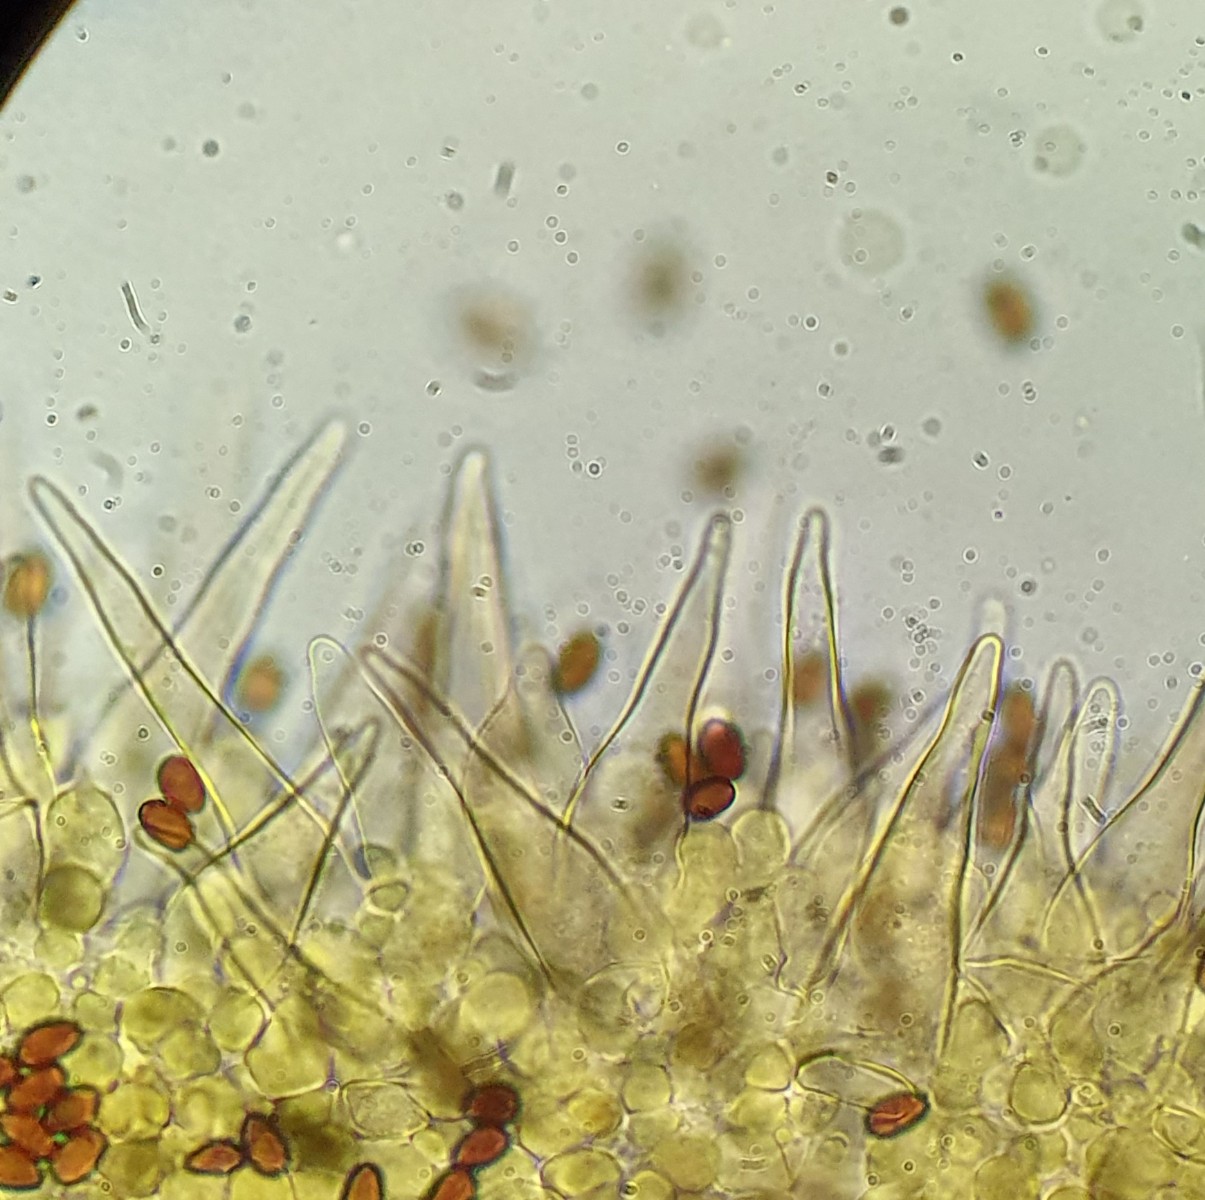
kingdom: Fungi
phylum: Basidiomycota
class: Agaricomycetes
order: Agaricales
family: Psathyrellaceae
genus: Psathyrella
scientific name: Psathyrella spintrigeroides
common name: tandet mørkhat
